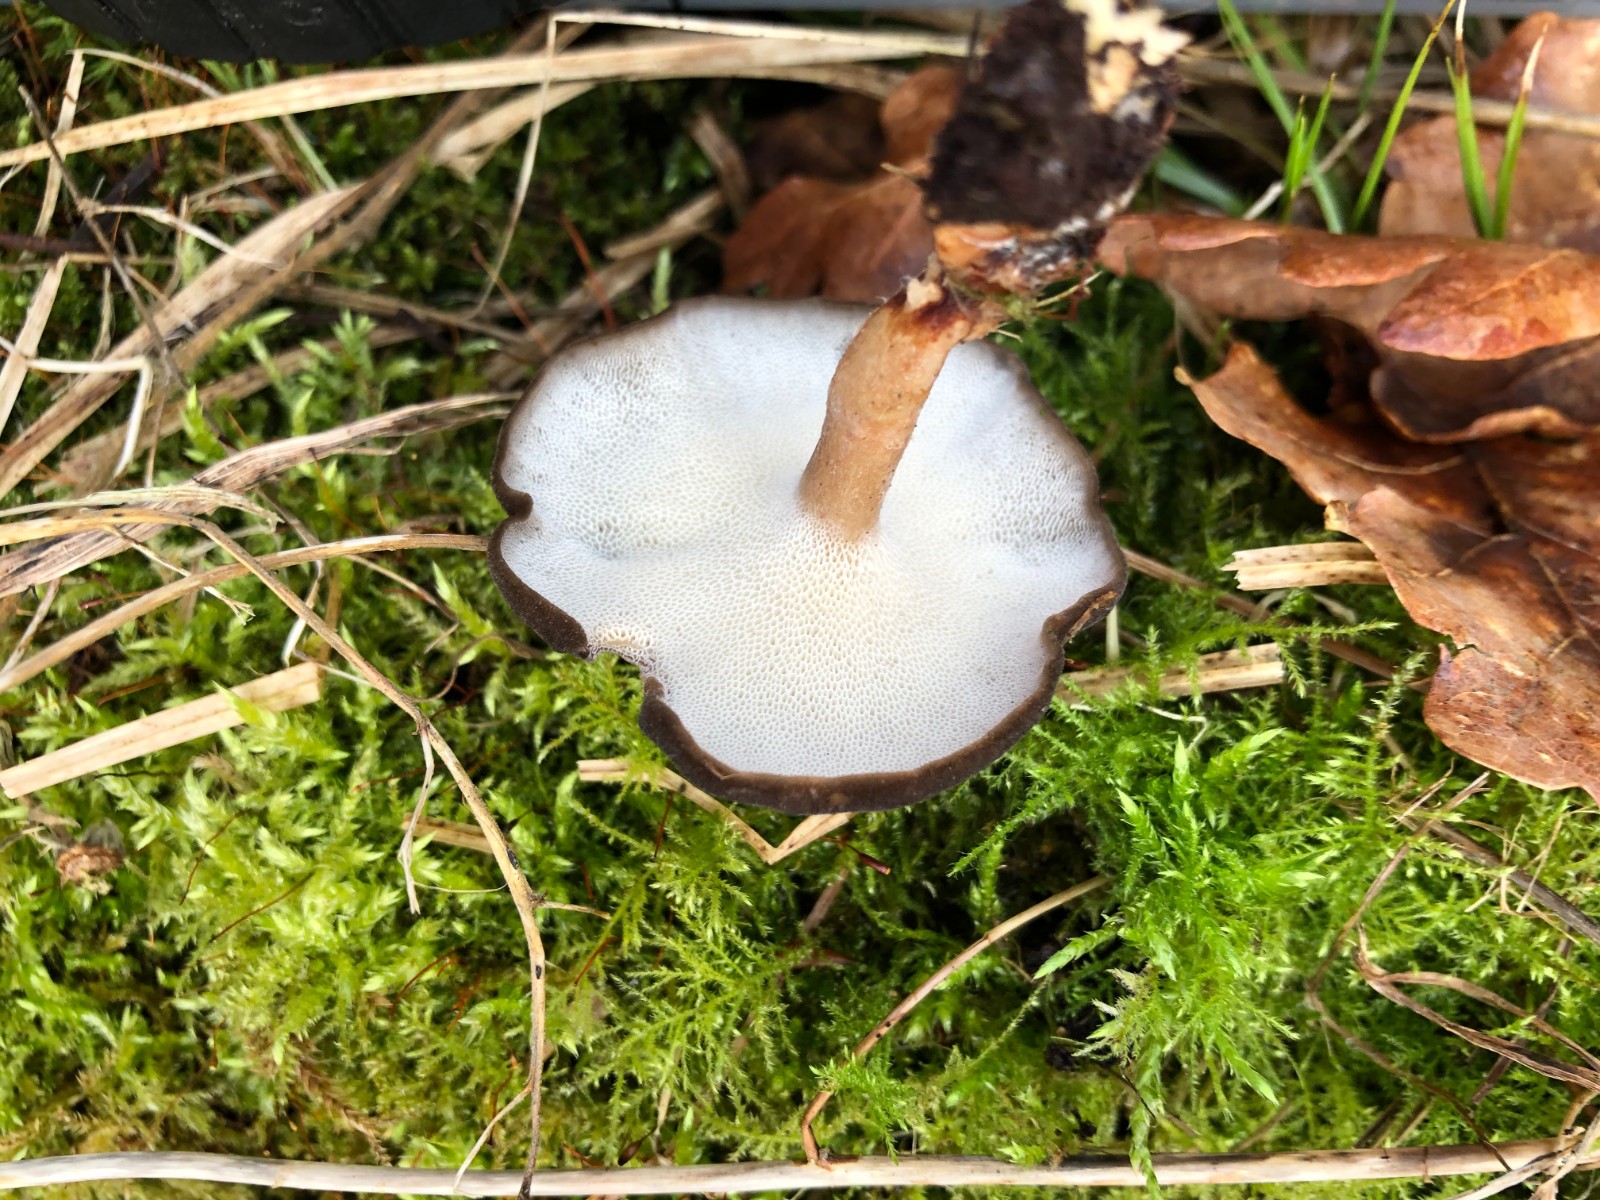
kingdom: Fungi
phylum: Basidiomycota
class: Agaricomycetes
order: Polyporales
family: Polyporaceae
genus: Lentinus
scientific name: Lentinus brumalis
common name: vinter-stilkporesvamp
